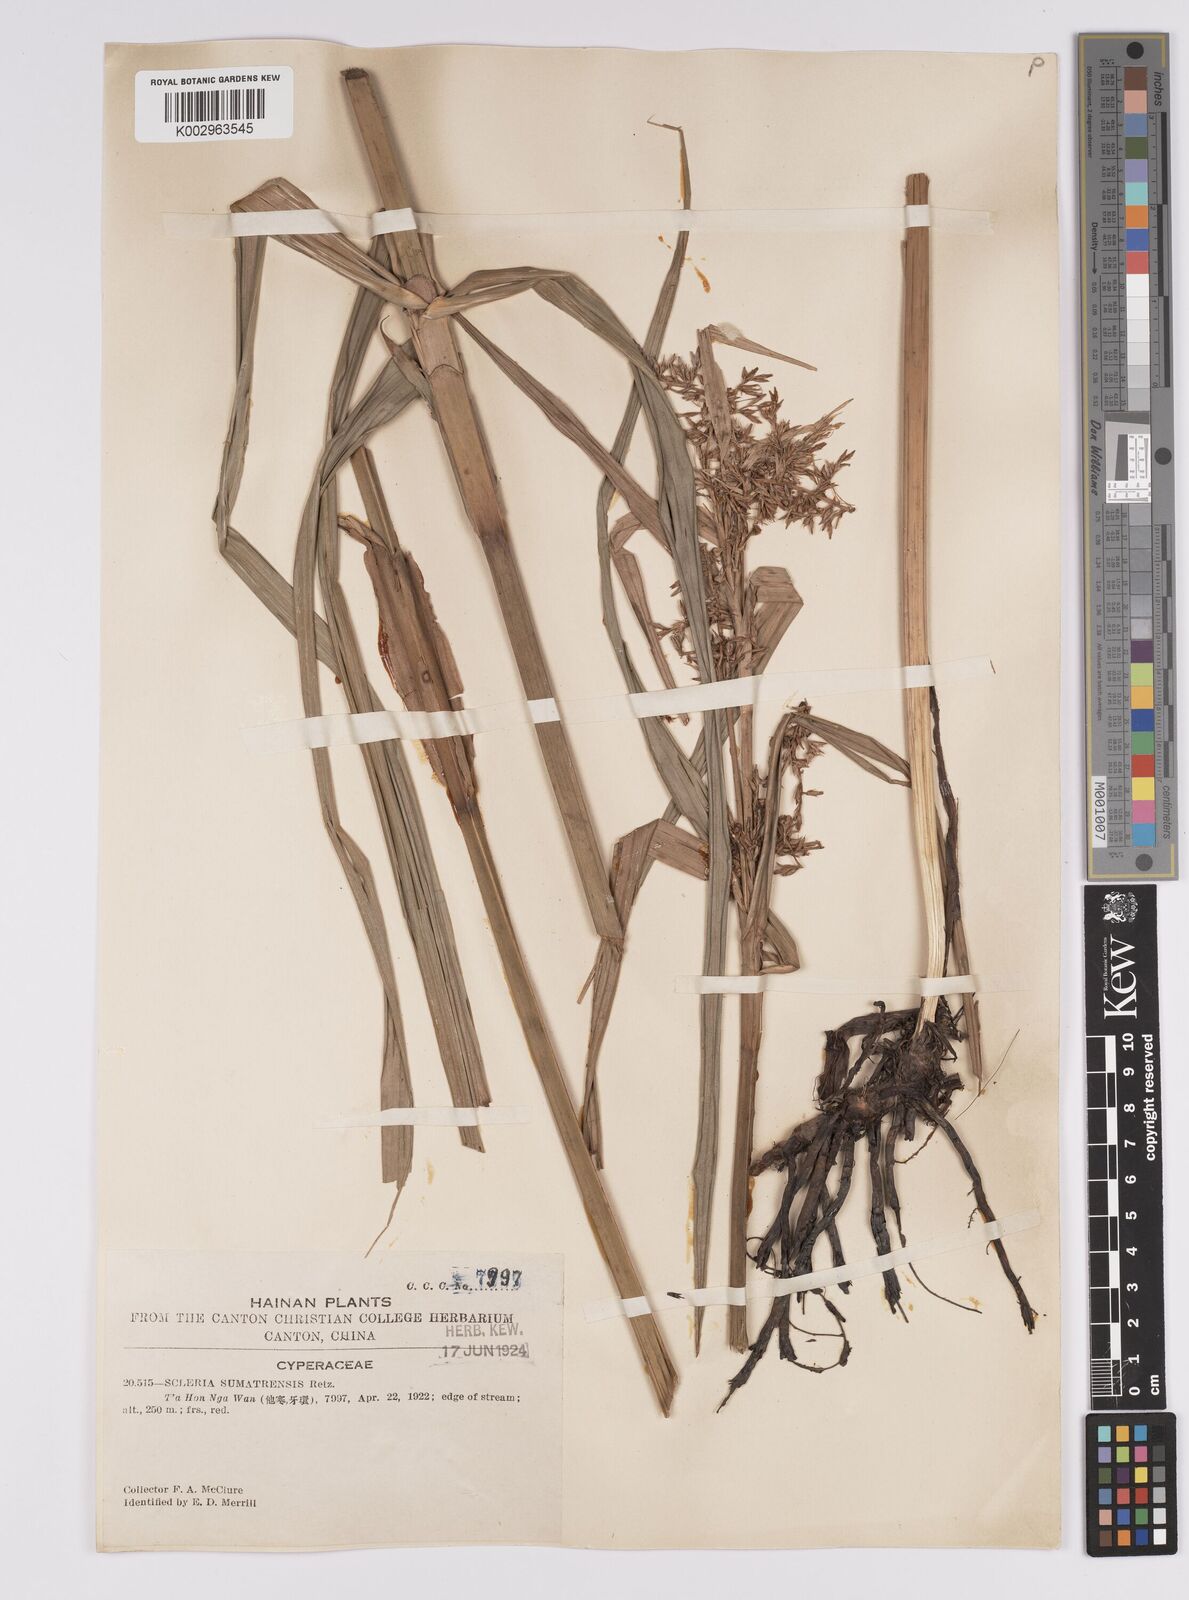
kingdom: Plantae
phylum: Tracheophyta
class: Liliopsida
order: Poales
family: Cyperaceae
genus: Scleria
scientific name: Scleria sumatrensis
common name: Sumatran scleria
